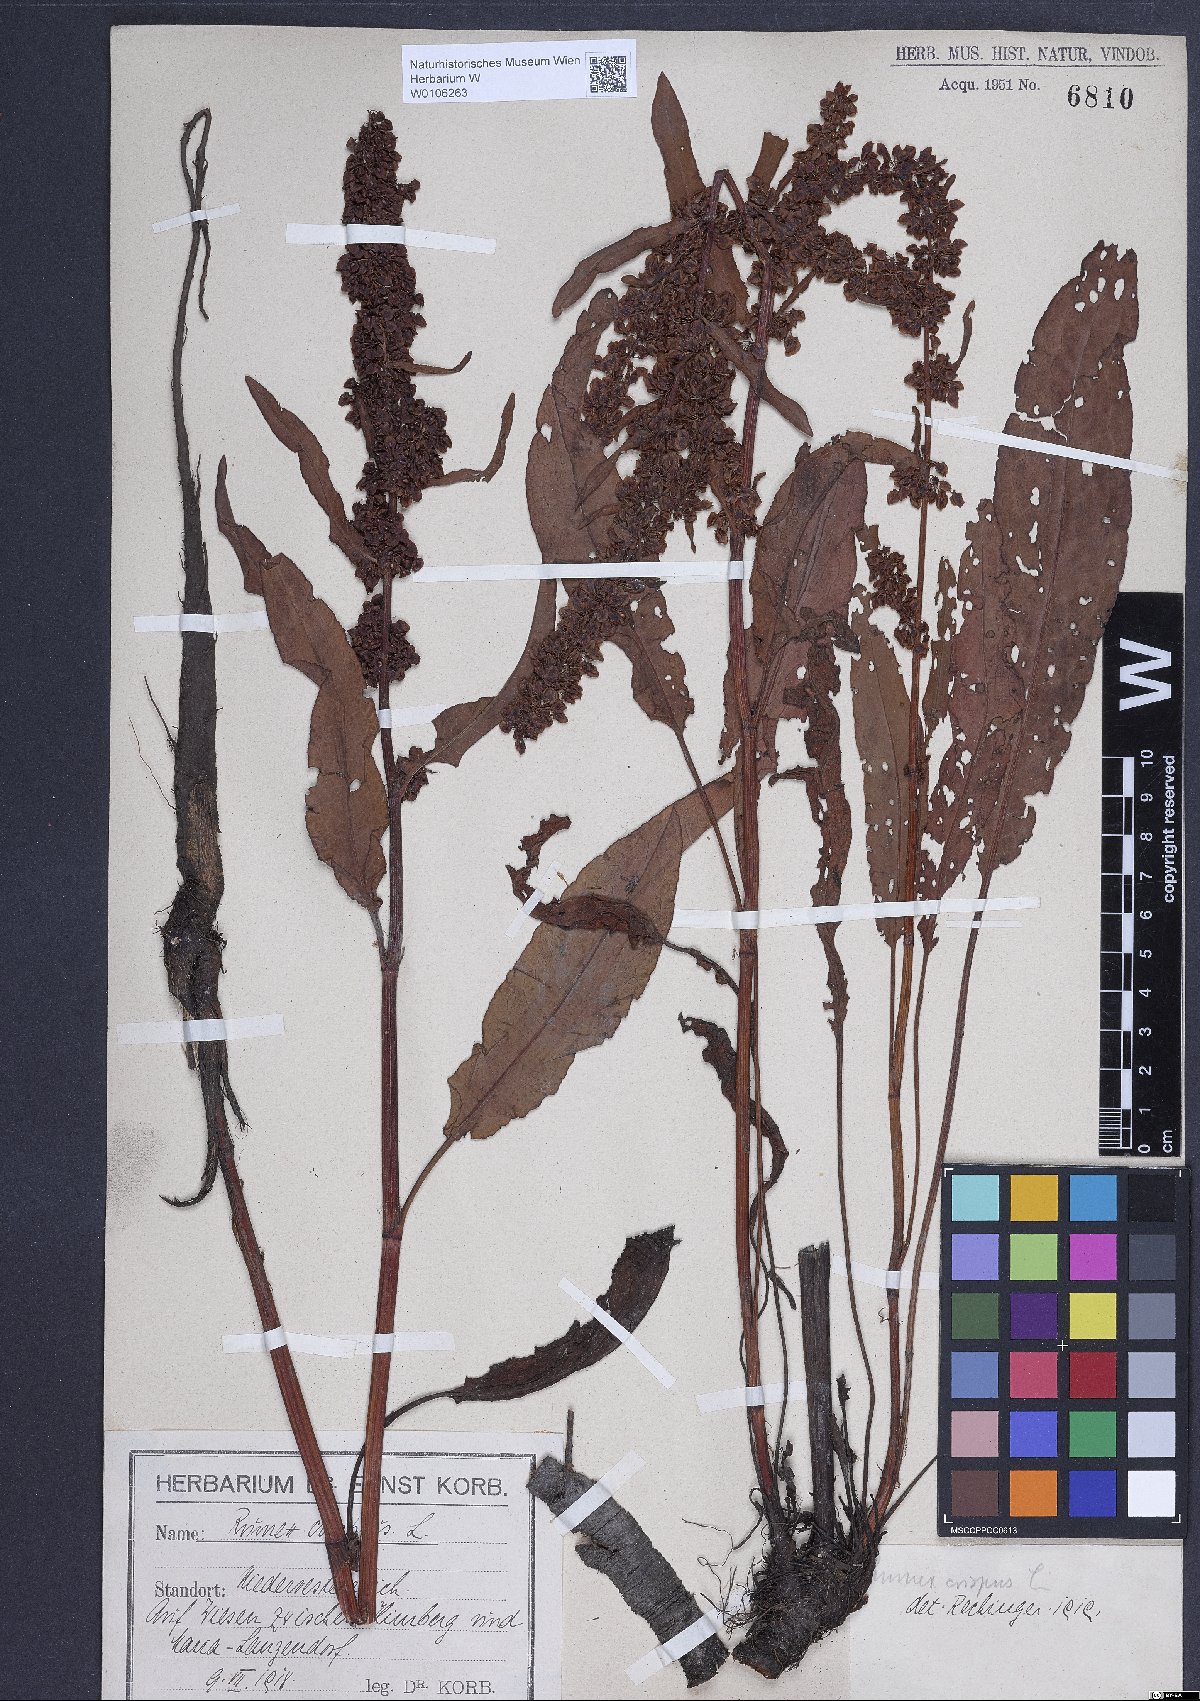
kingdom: Plantae
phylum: Tracheophyta
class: Magnoliopsida
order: Caryophyllales
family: Polygonaceae
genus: Rumex
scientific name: Rumex crispus
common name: Curled dock
